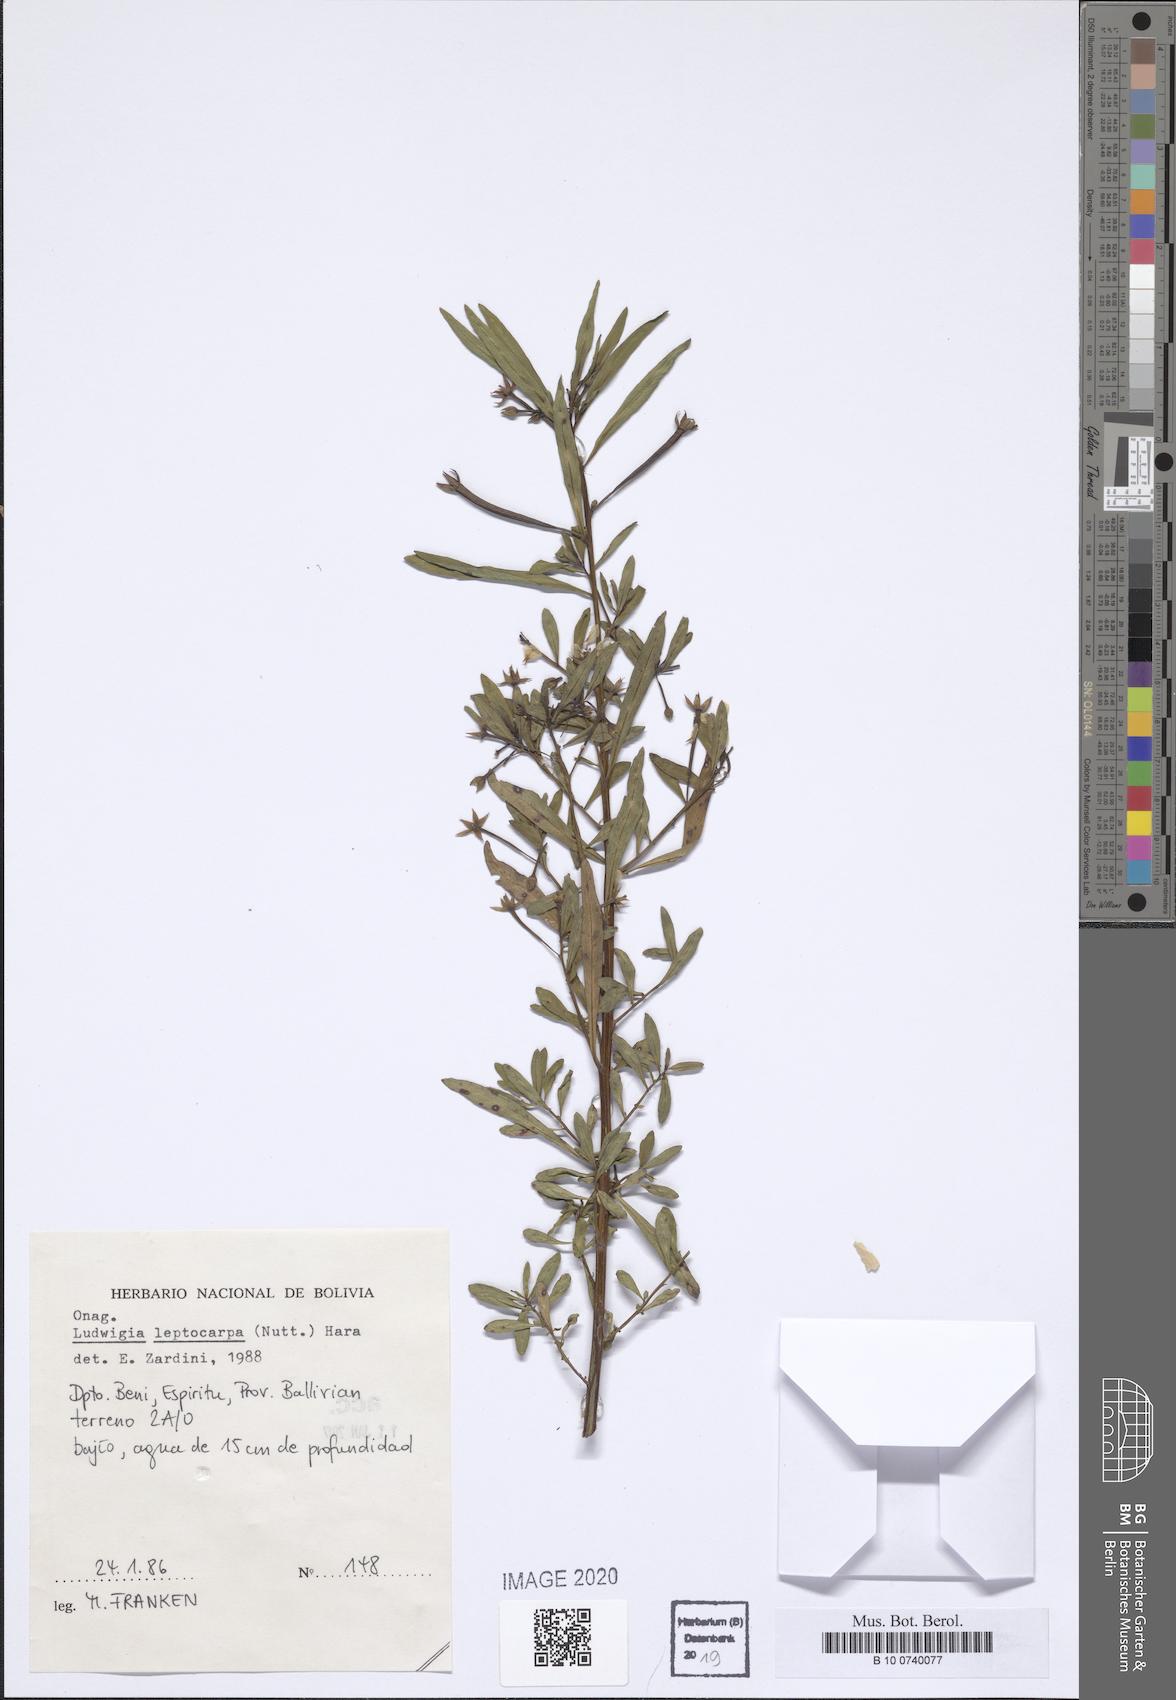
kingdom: Plantae
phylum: Tracheophyta
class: Magnoliopsida
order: Myrtales
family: Onagraceae
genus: Ludwigia
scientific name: Ludwigia leptocarpa
